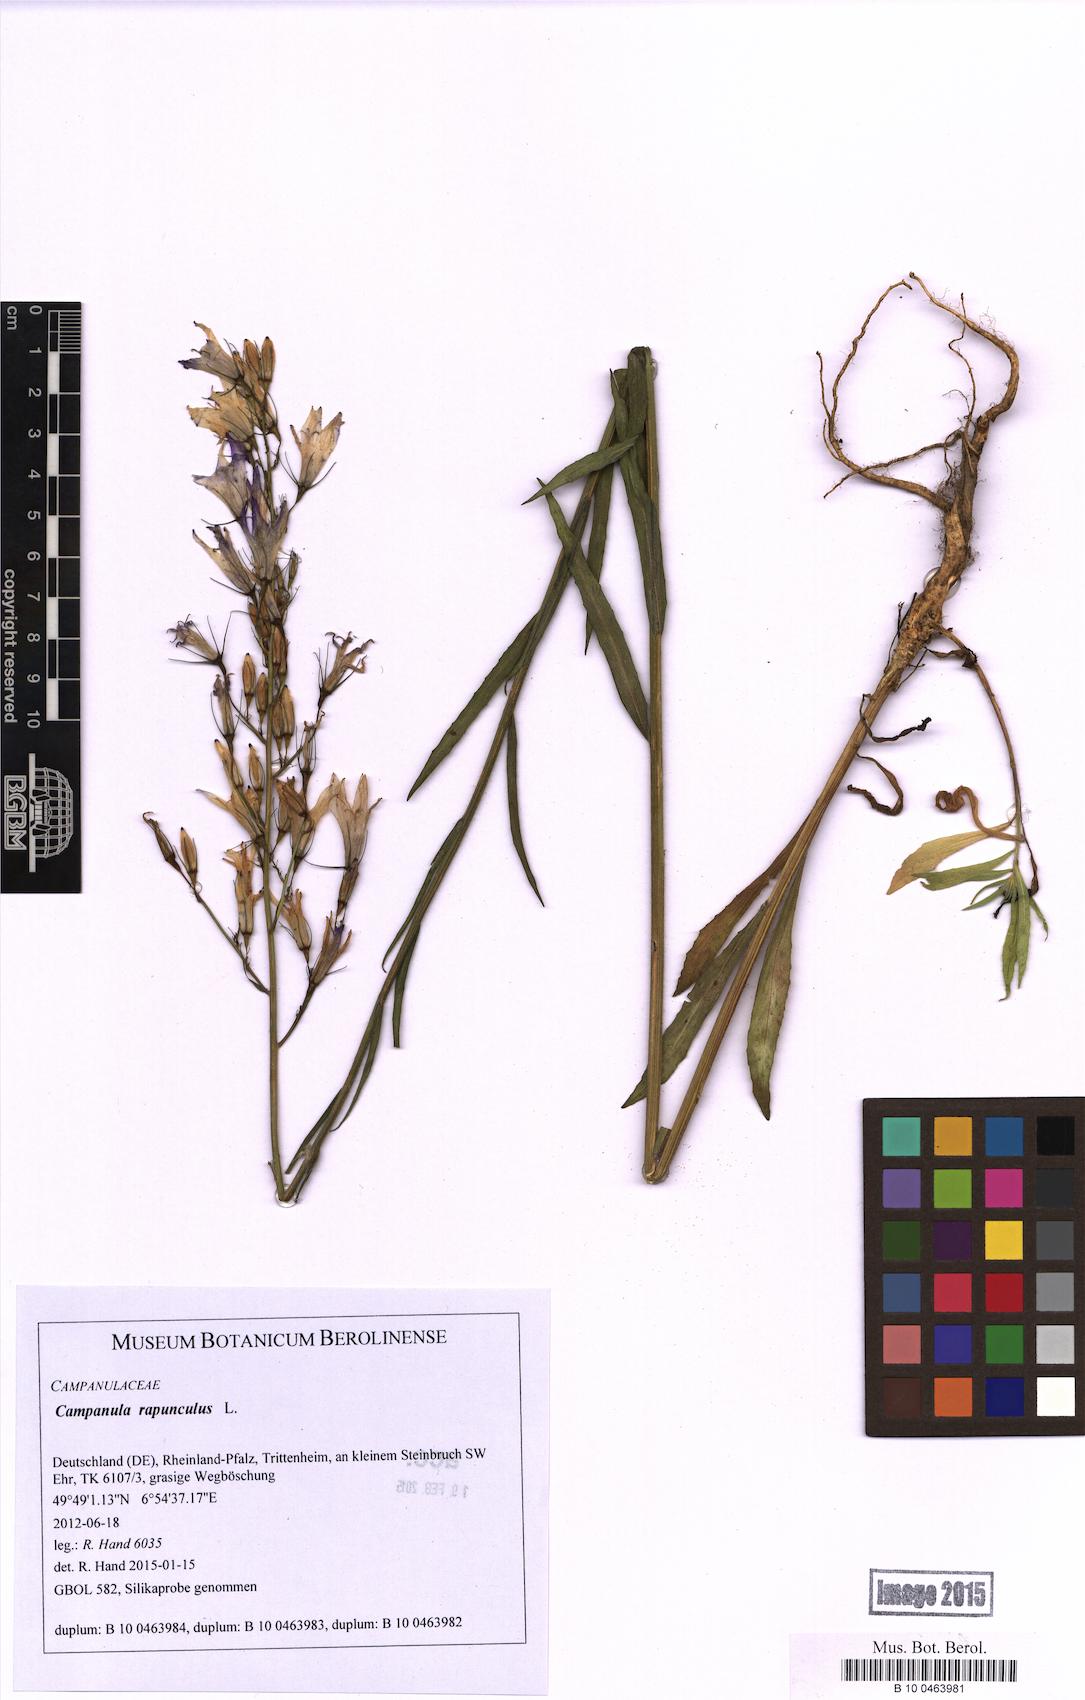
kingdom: Plantae
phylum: Tracheophyta
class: Magnoliopsida
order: Asterales
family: Campanulaceae
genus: Campanula
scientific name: Campanula rapunculus
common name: Rampion bellflower
